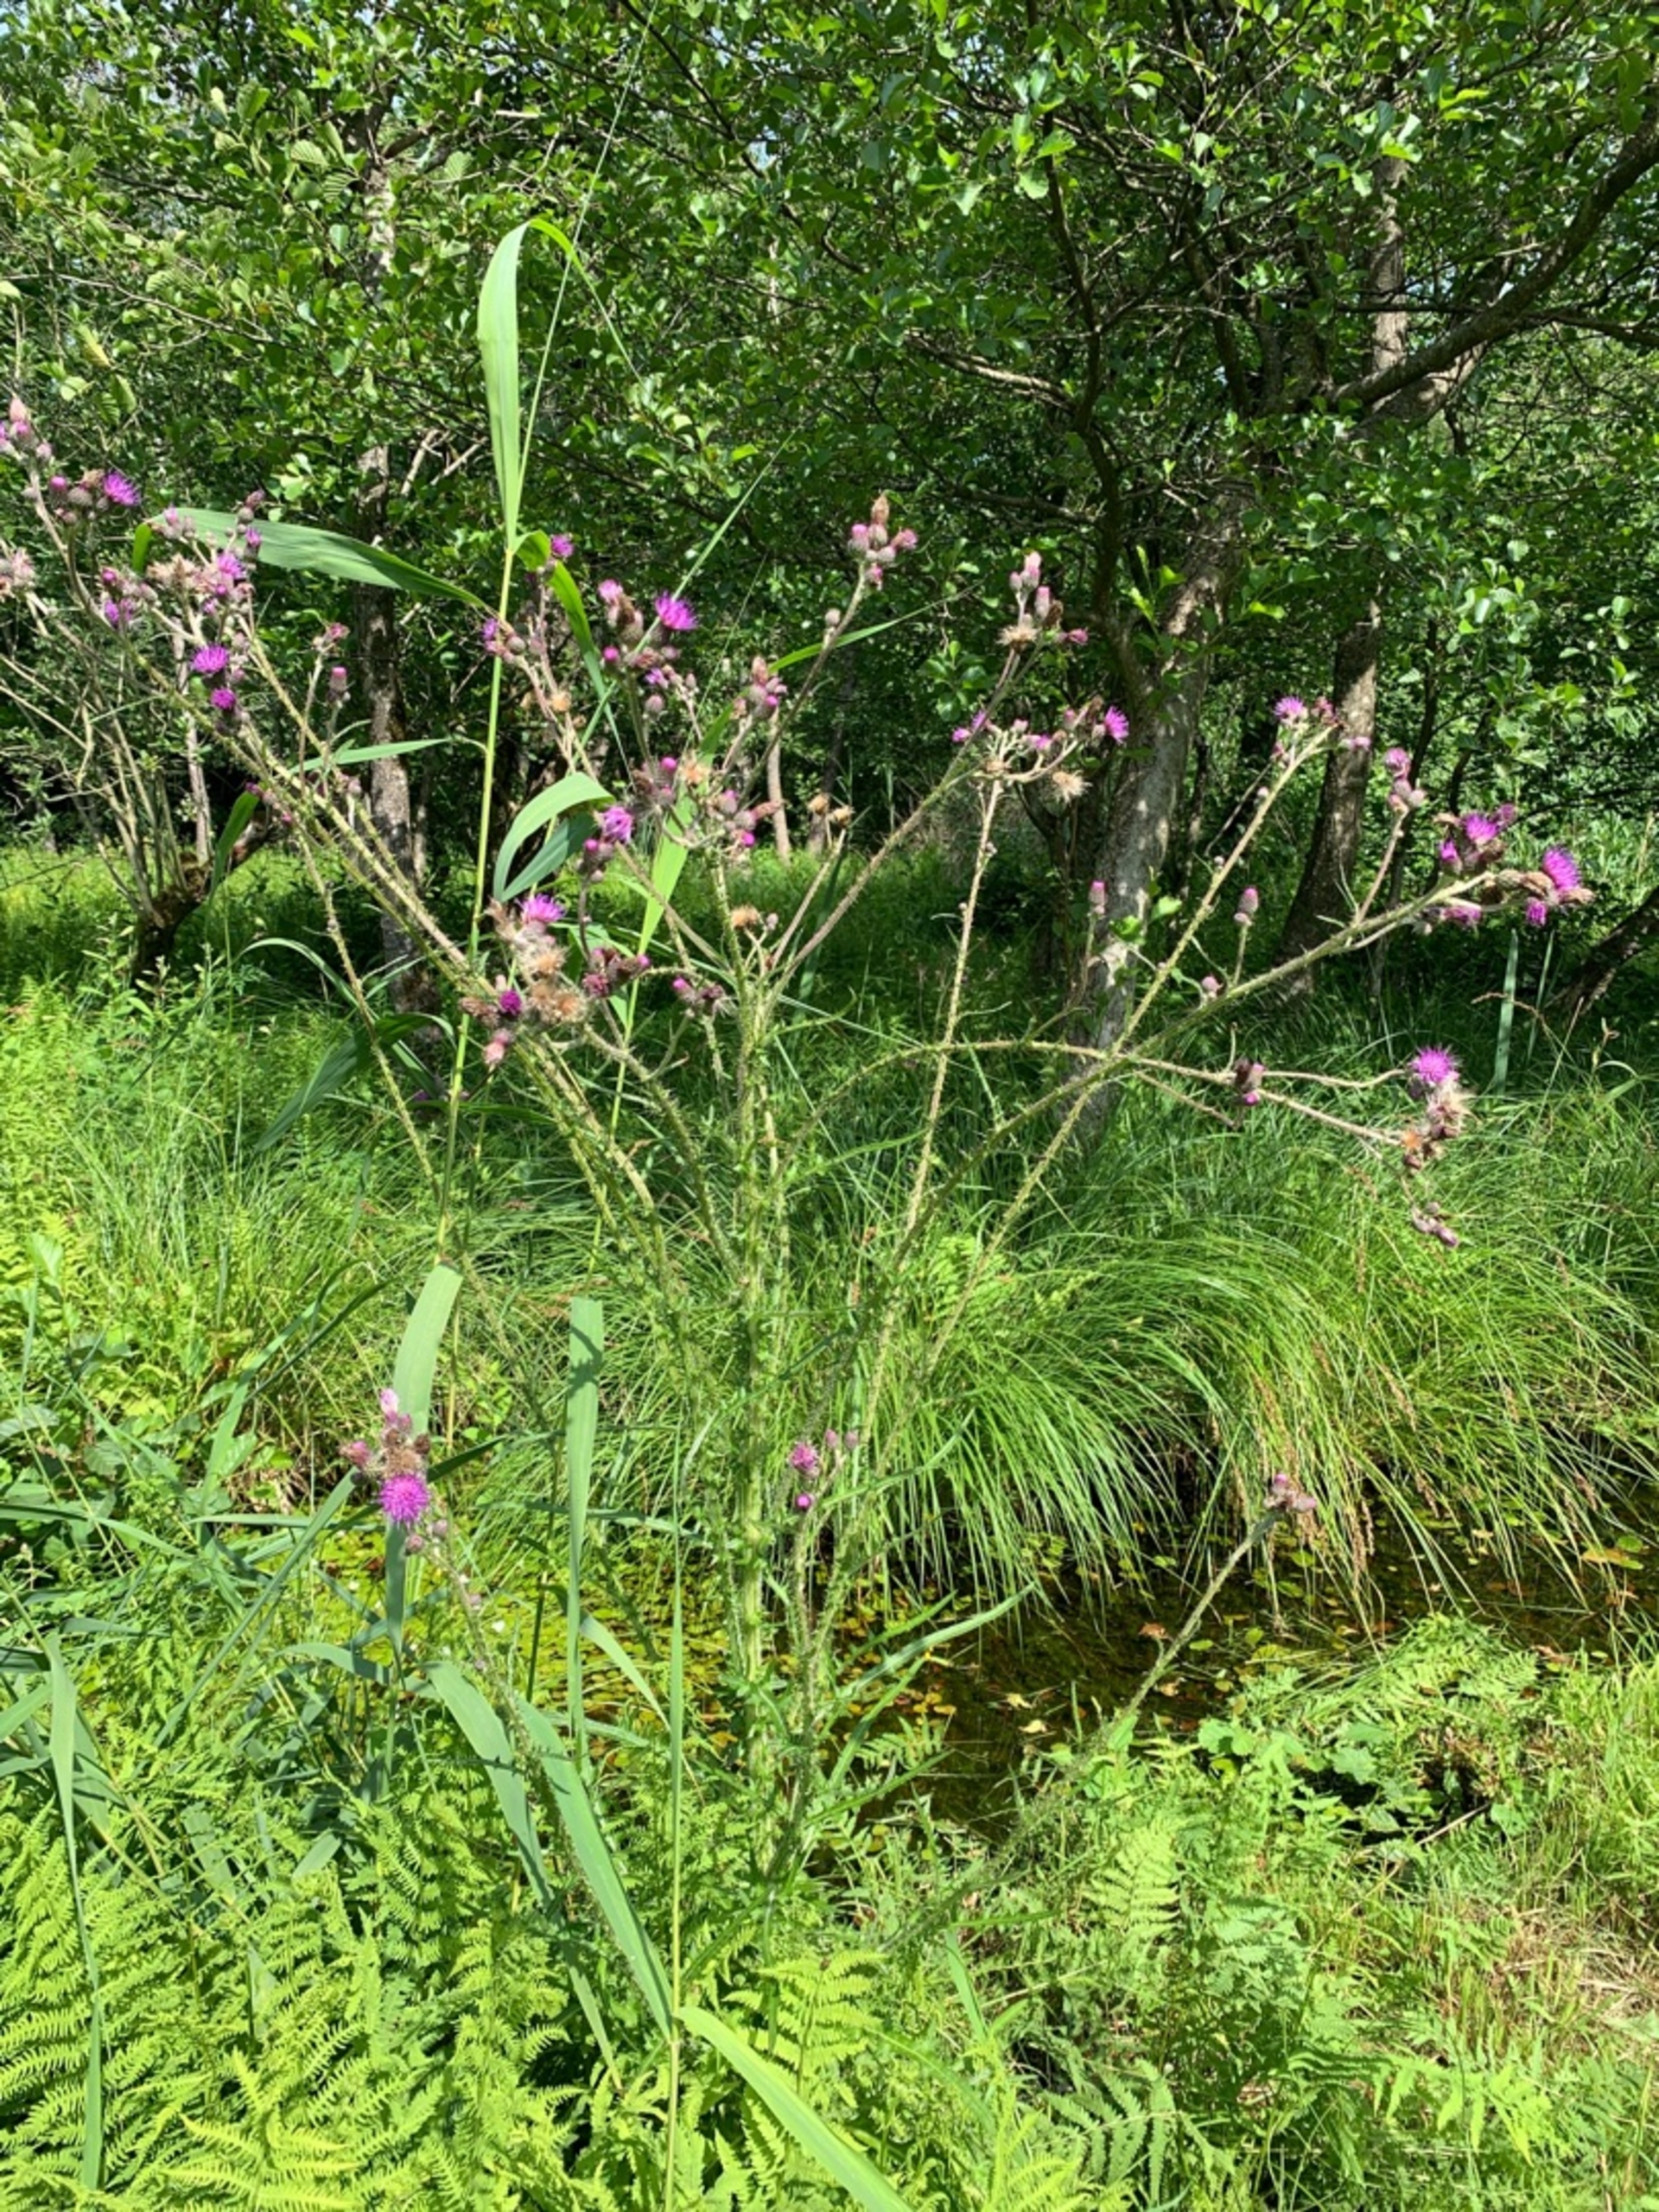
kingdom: Plantae
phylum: Tracheophyta
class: Magnoliopsida
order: Asterales
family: Asteraceae
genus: Cirsium
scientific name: Cirsium palustre
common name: Kær-tidsel
